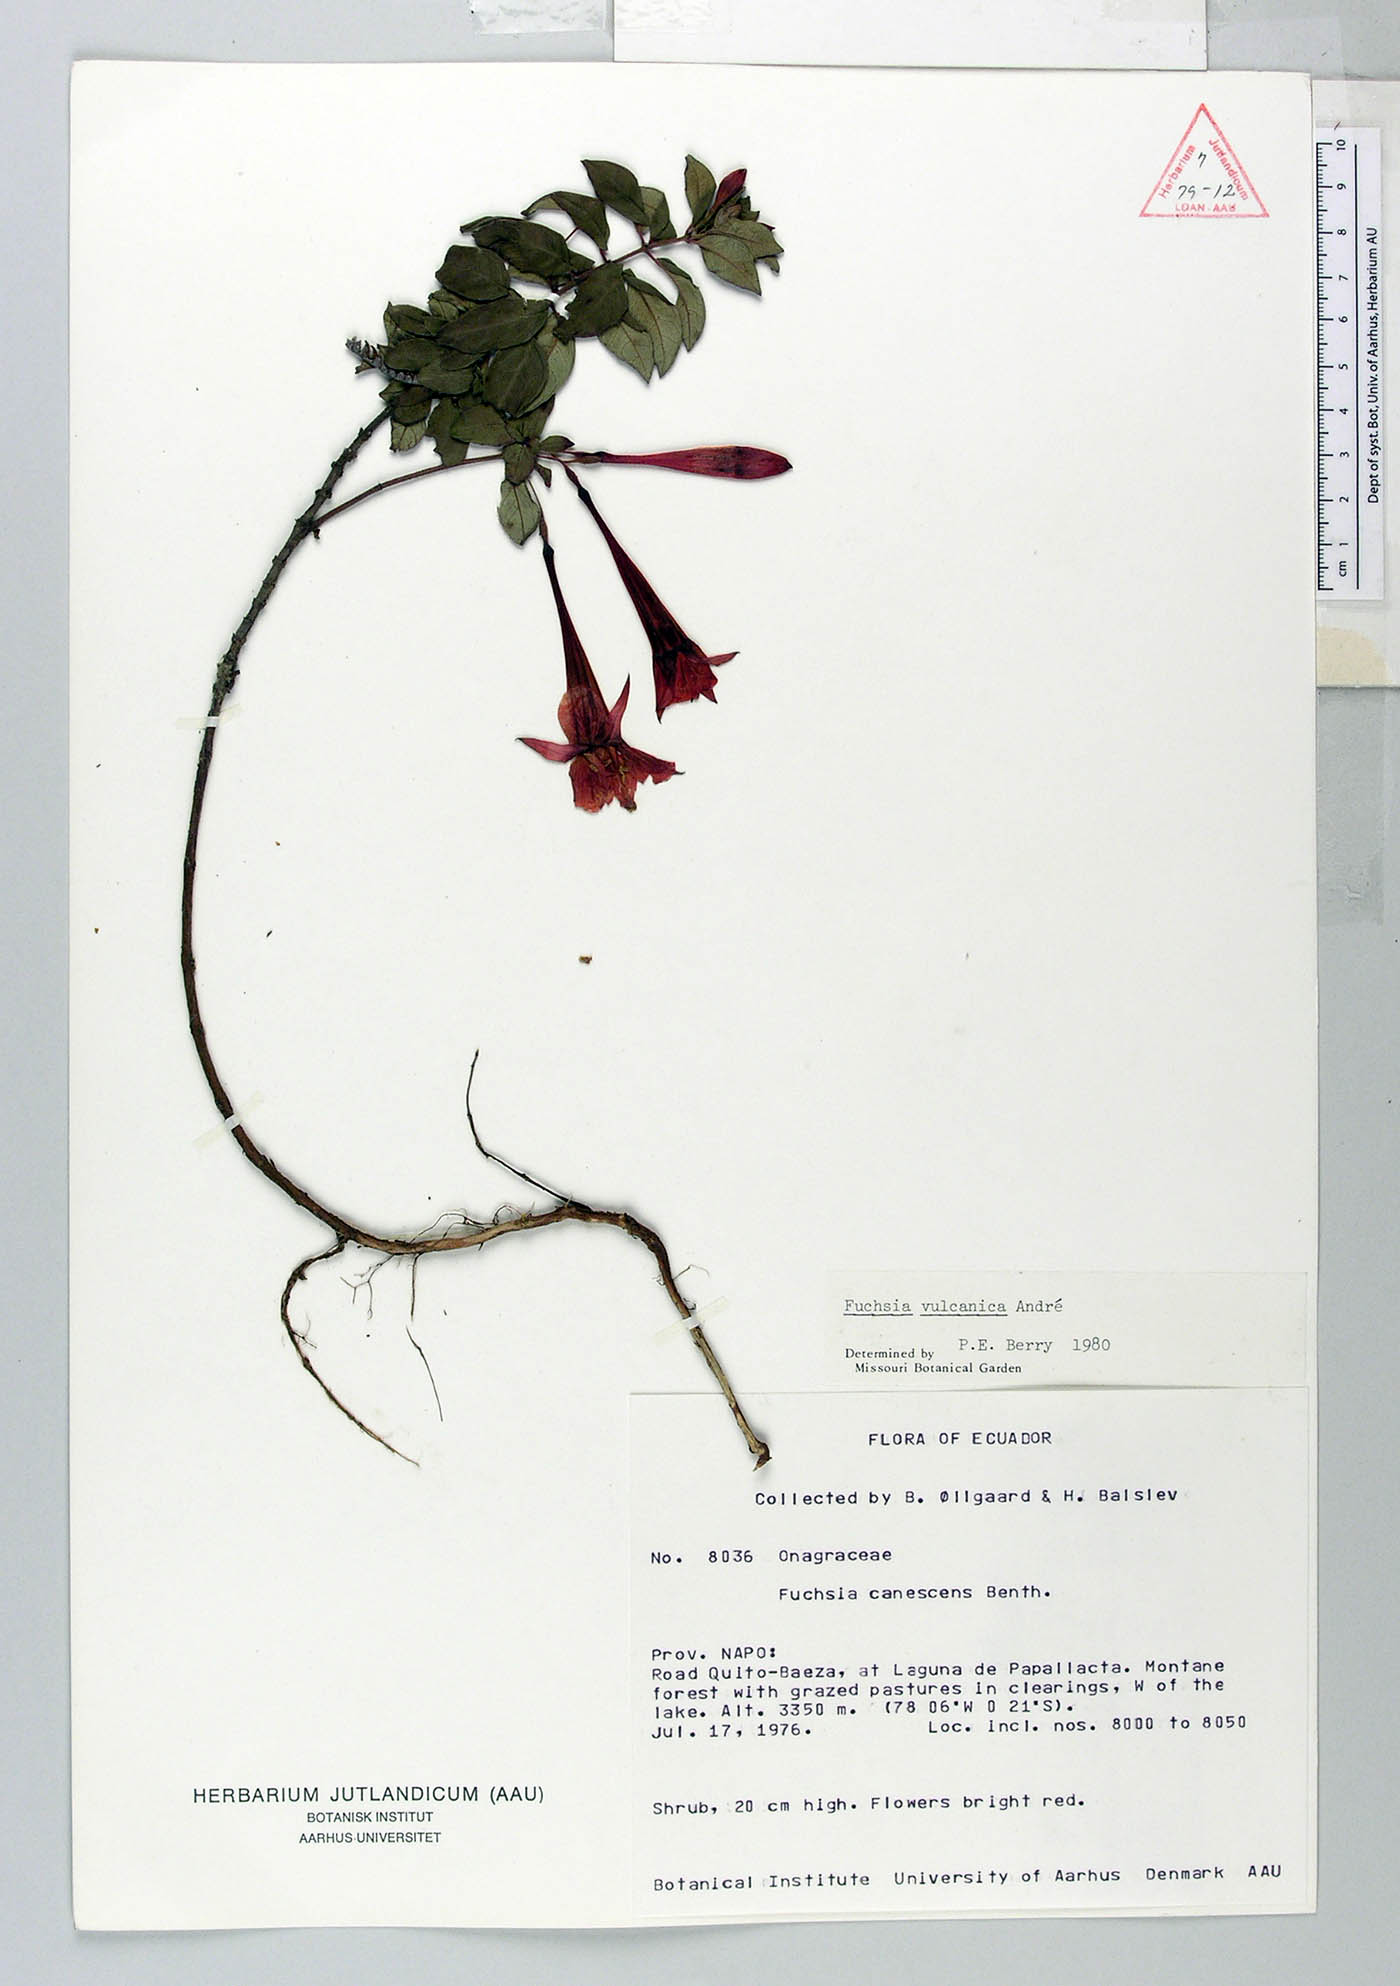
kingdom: Plantae
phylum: Tracheophyta
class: Magnoliopsida
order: Myrtales
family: Onagraceae
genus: Fuchsia
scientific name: Fuchsia vulcanica
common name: Volcan's fuchsia
